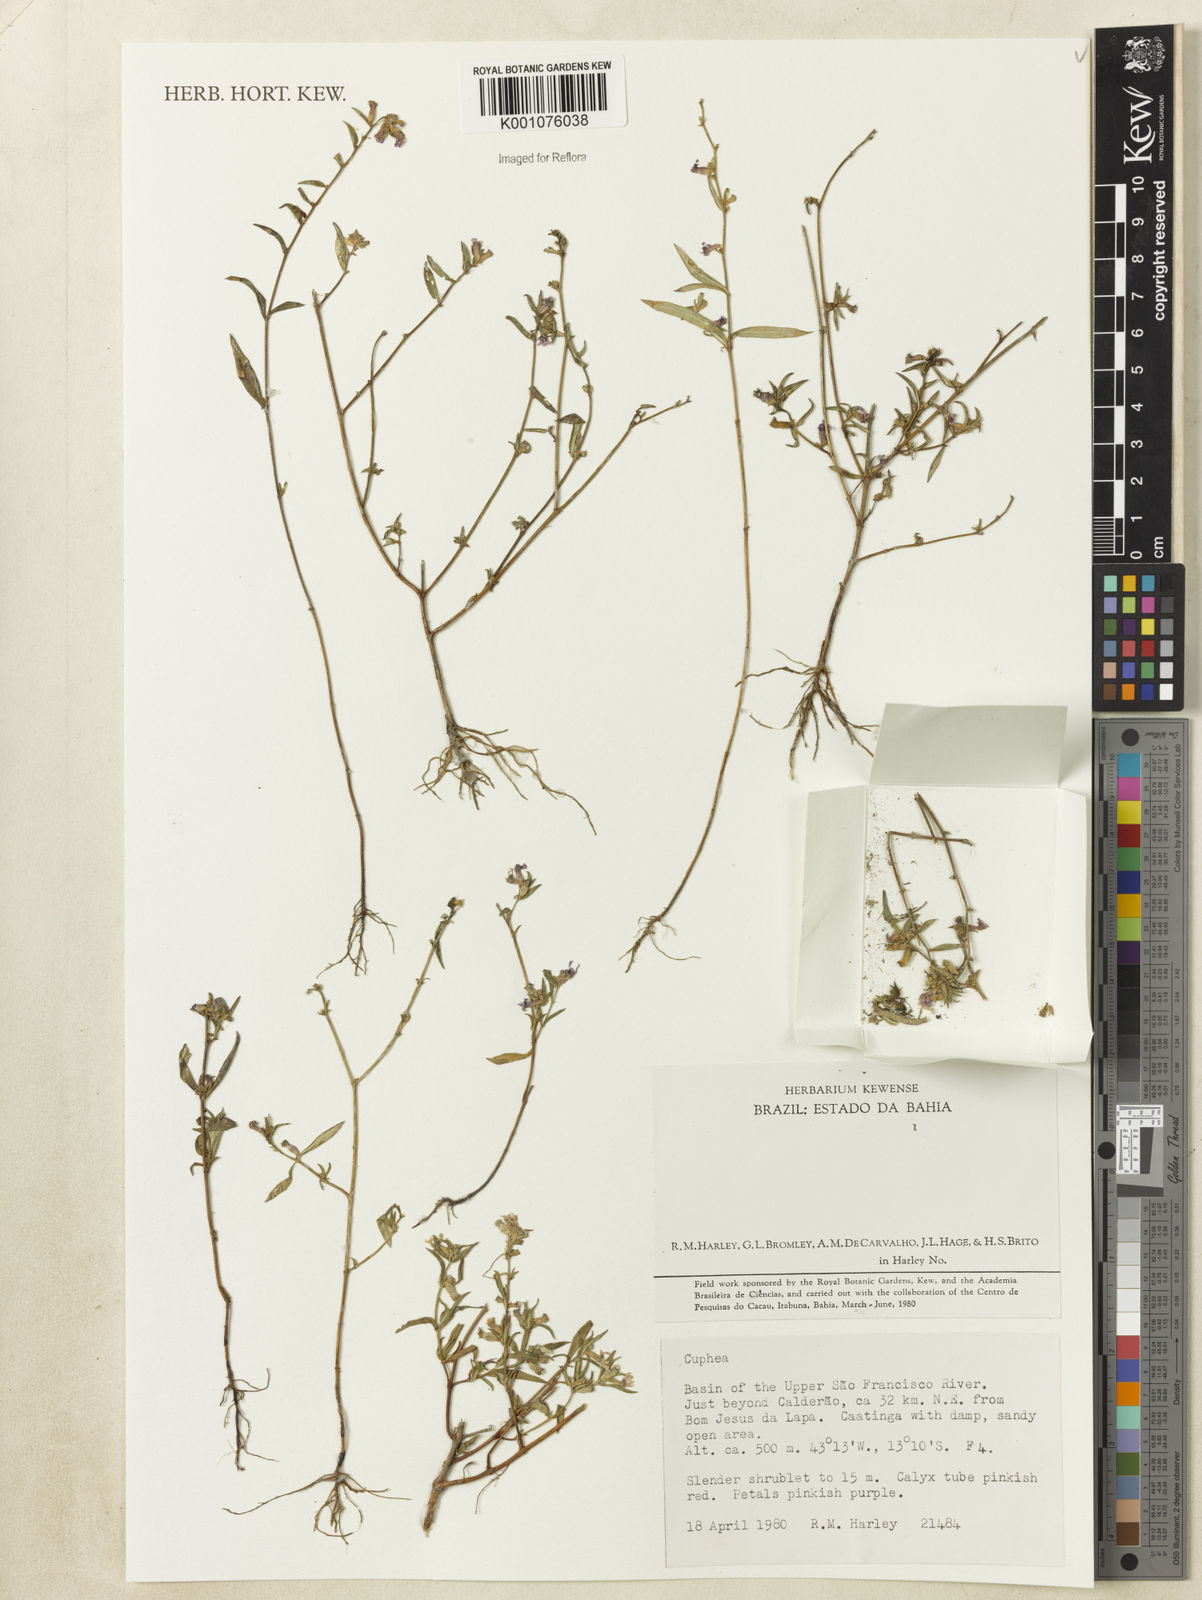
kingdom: Plantae
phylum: Tracheophyta
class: Magnoliopsida
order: Myrtales
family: Lythraceae
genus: Cuphea
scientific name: Cuphea
